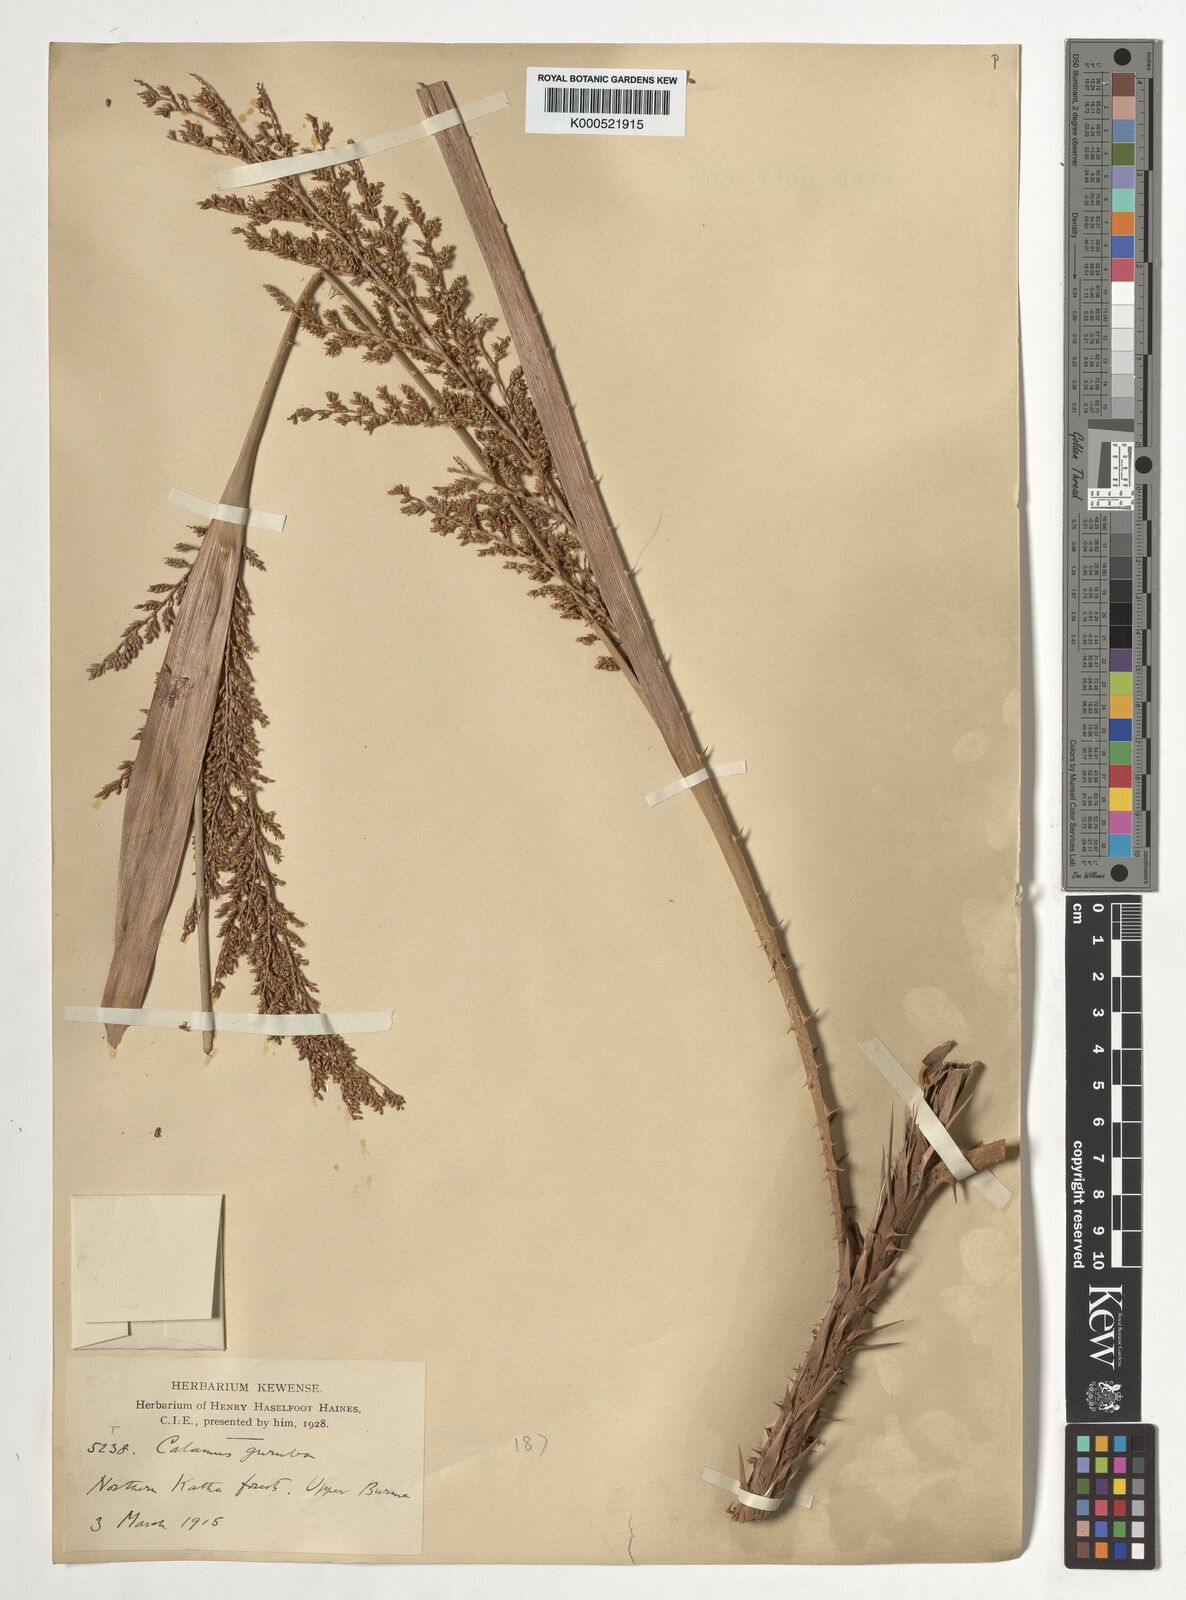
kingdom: Plantae
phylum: Tracheophyta
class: Liliopsida
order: Arecales
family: Arecaceae
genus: Calamus
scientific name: Calamus
